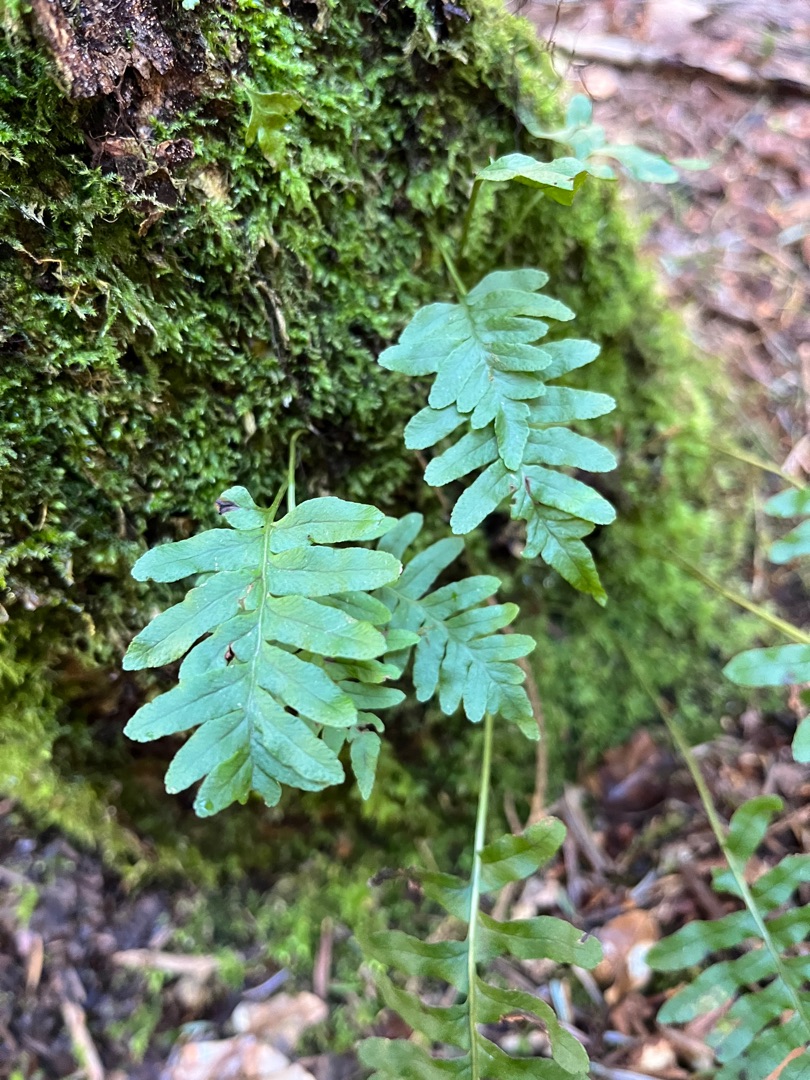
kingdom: Plantae
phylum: Tracheophyta
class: Polypodiopsida
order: Polypodiales
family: Polypodiaceae
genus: Polypodium
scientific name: Polypodium vulgare
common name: Almindelig engelsød
